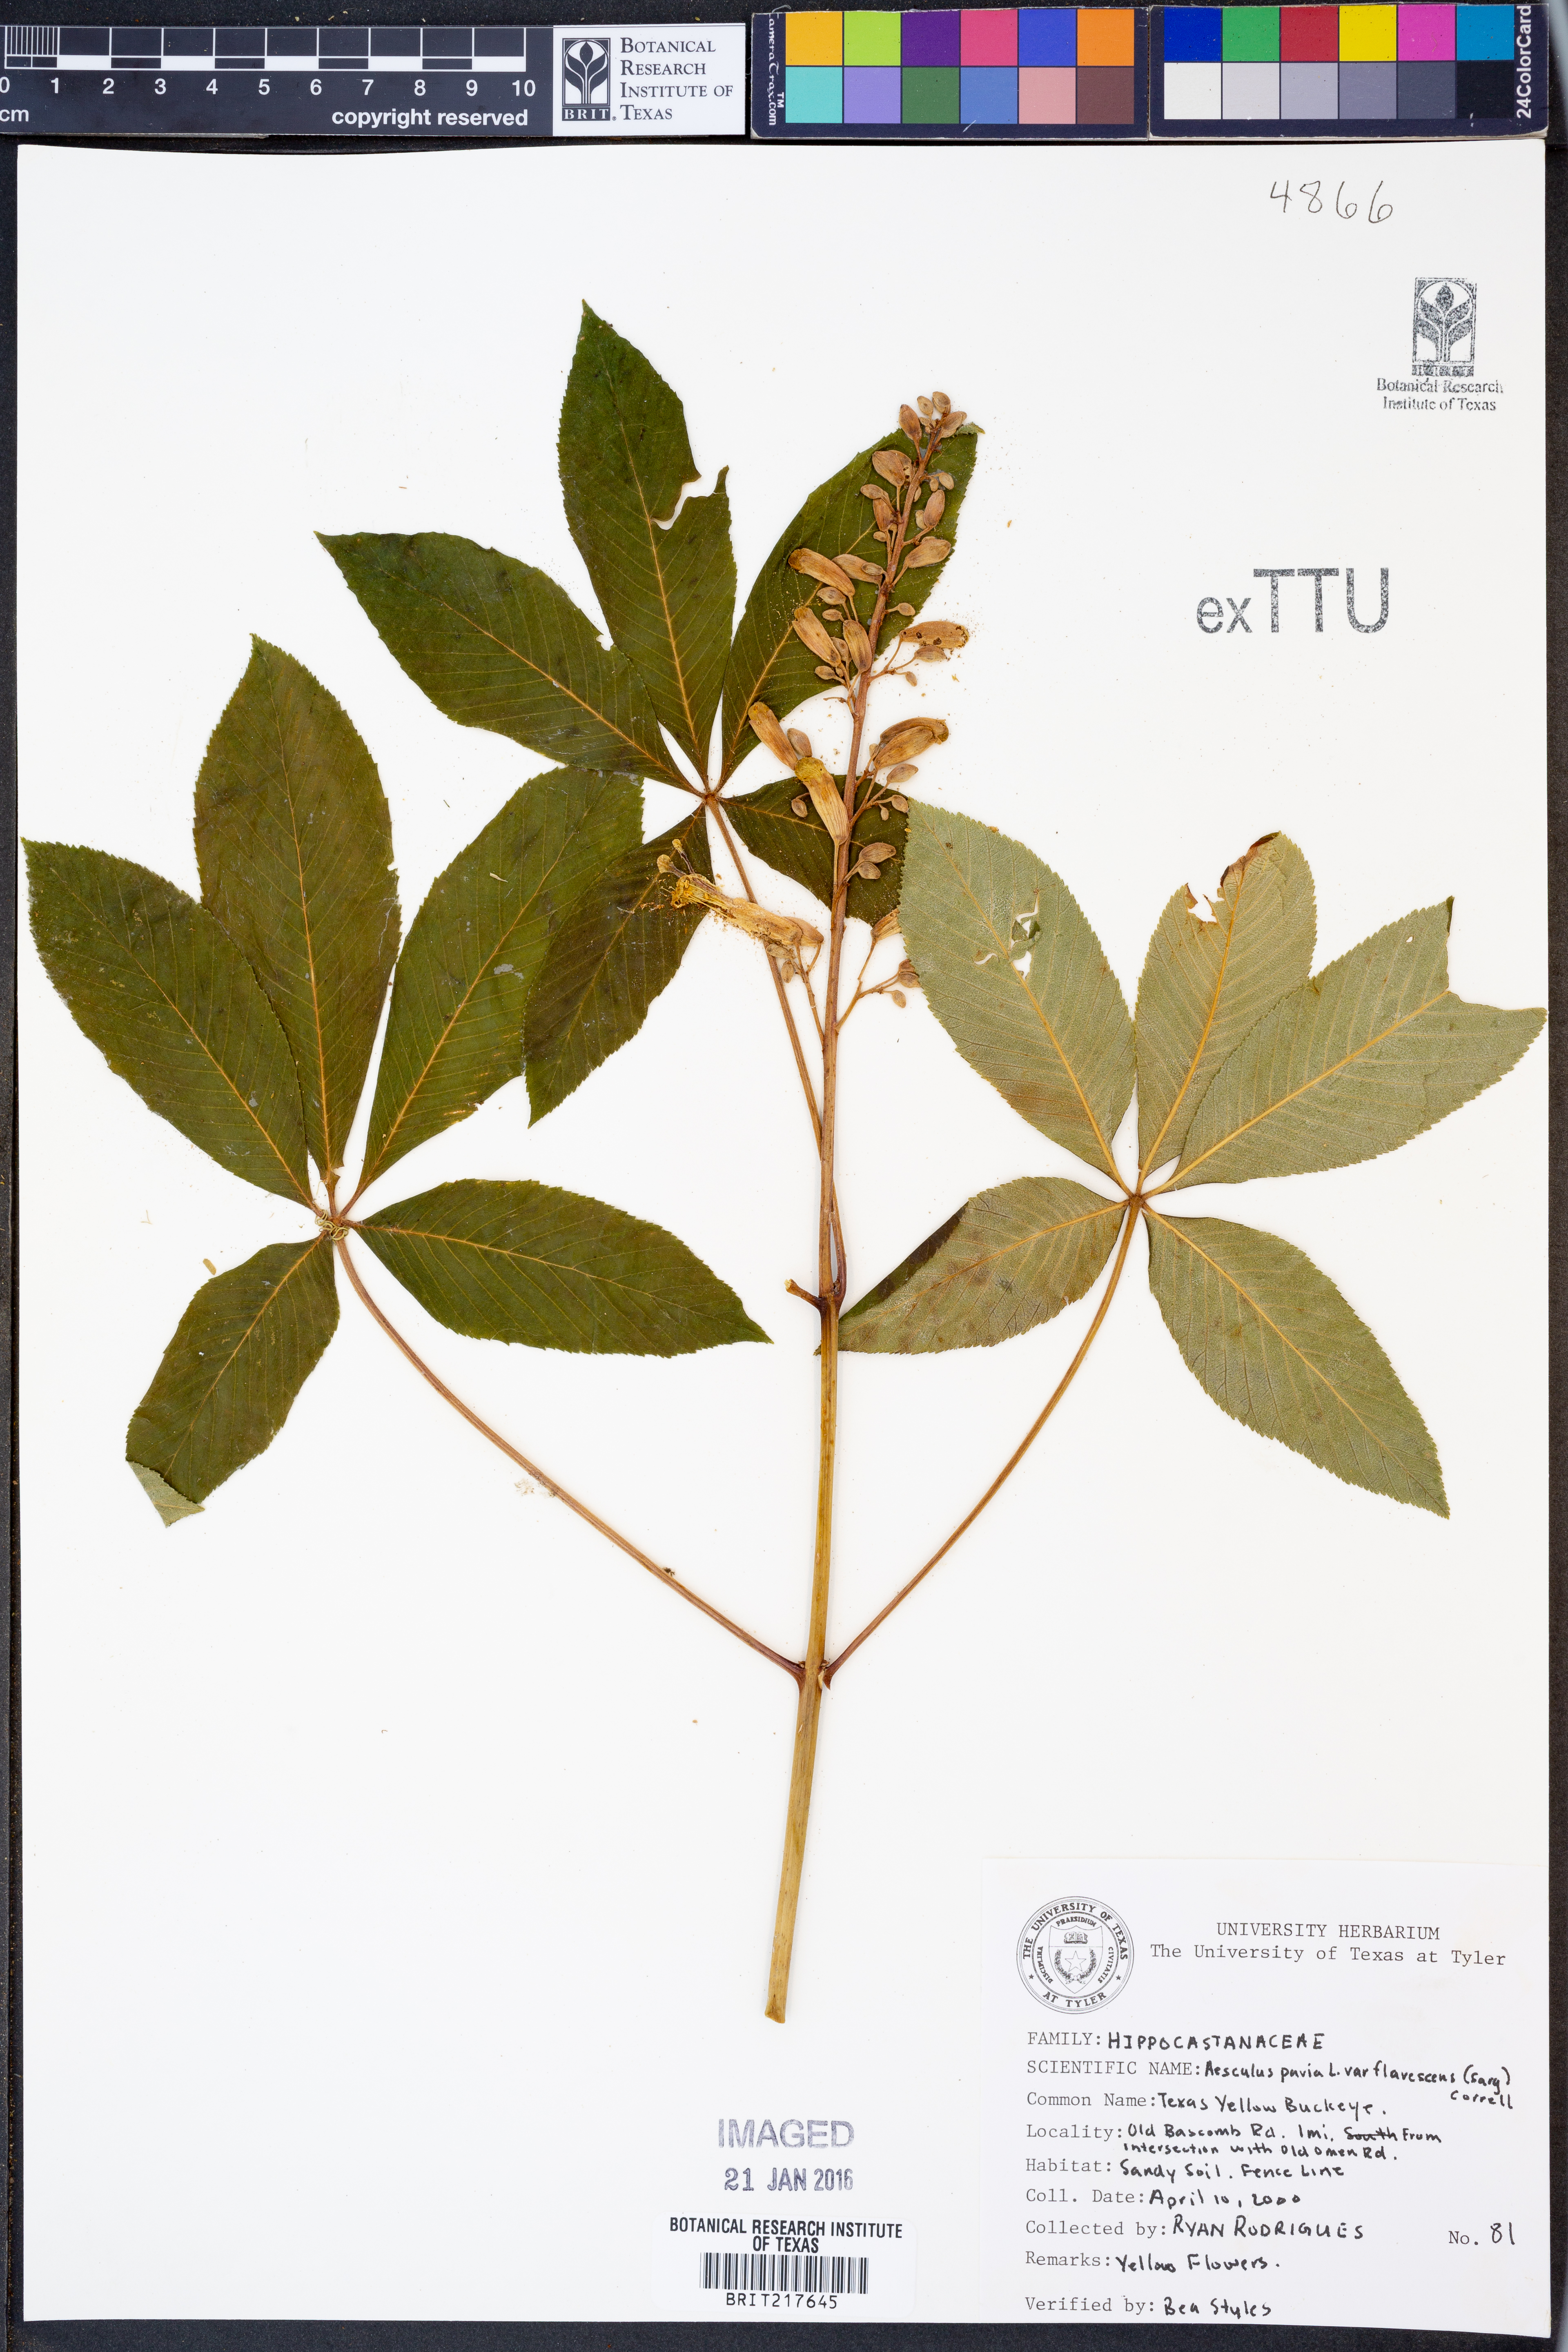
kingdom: Plantae
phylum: Tracheophyta
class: Magnoliopsida
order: Sapindales
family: Sapindaceae
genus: Aesculus
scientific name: Aesculus pavia
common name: Red buckeye
